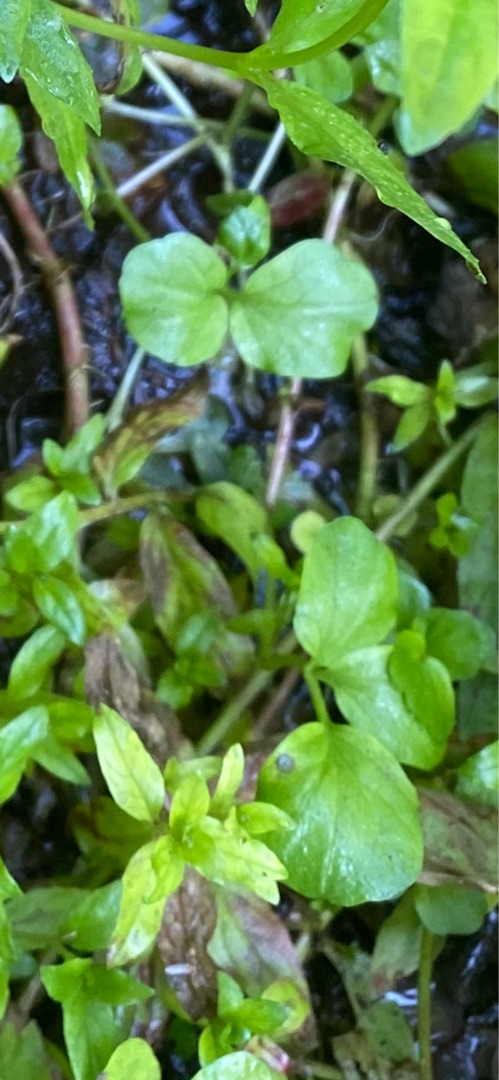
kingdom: Plantae
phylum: Tracheophyta
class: Magnoliopsida
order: Brassicales
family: Brassicaceae
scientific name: Brassicaceae
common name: Korsblomstfamilien
